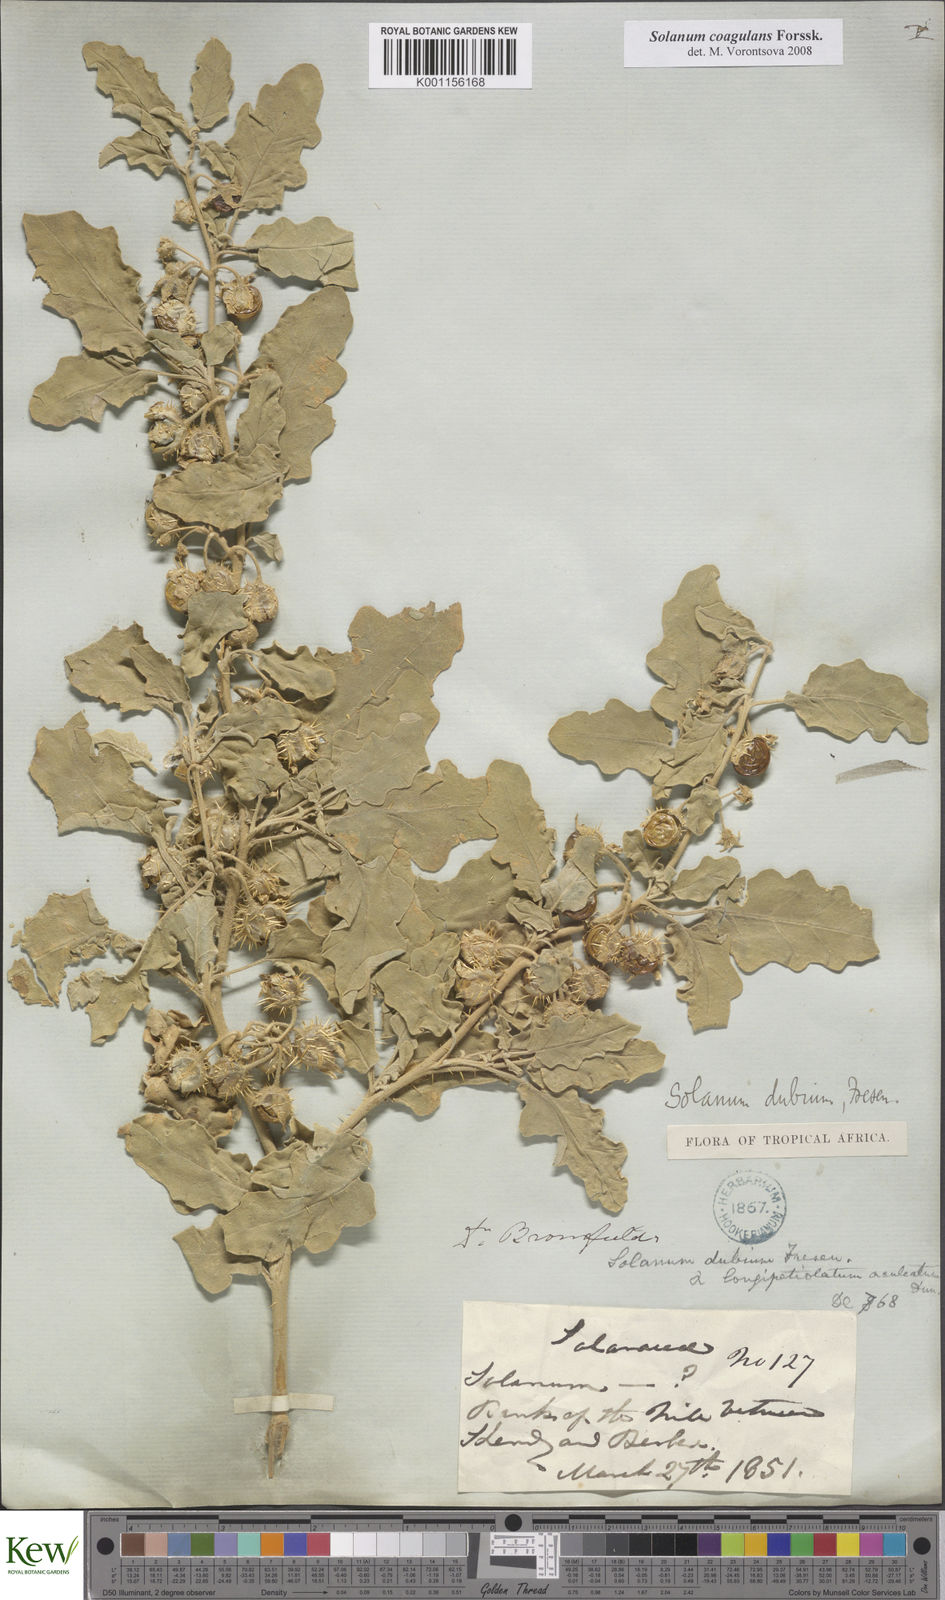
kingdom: Plantae
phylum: Tracheophyta
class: Magnoliopsida
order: Solanales
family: Solanaceae
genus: Solanum
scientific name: Solanum coagulans
